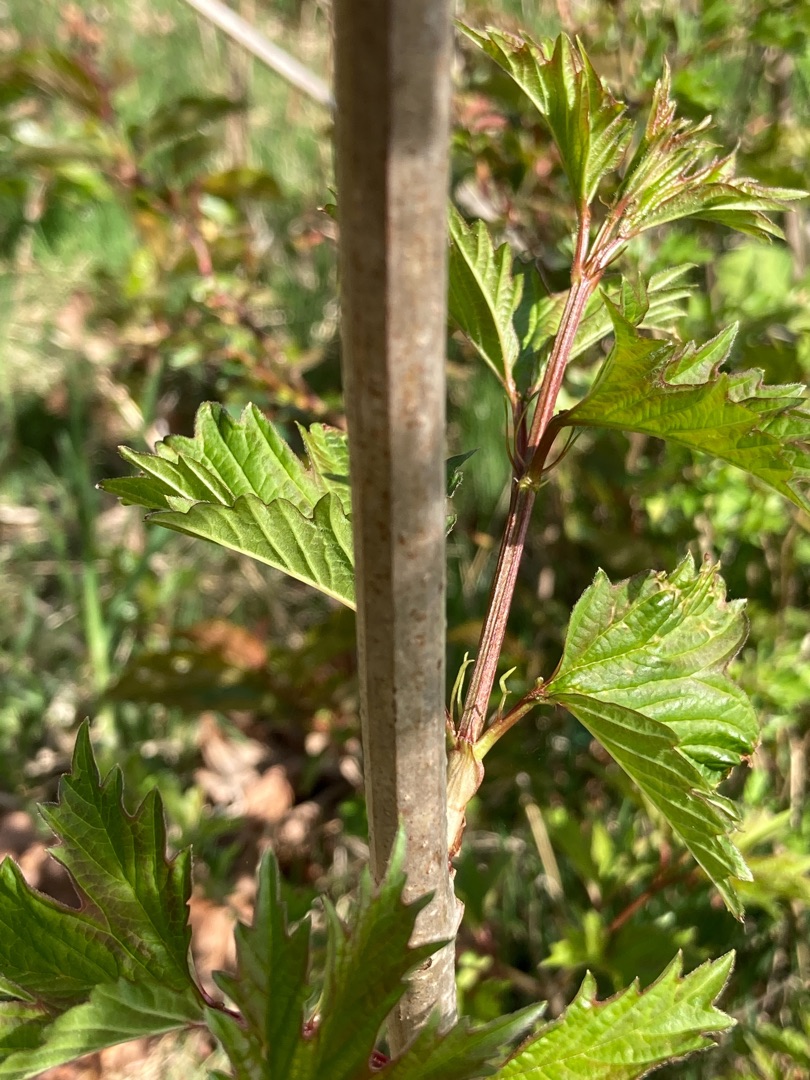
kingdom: Plantae
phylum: Tracheophyta
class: Magnoliopsida
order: Dipsacales
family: Viburnaceae
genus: Viburnum
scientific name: Viburnum opulus
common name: Kvalkved
